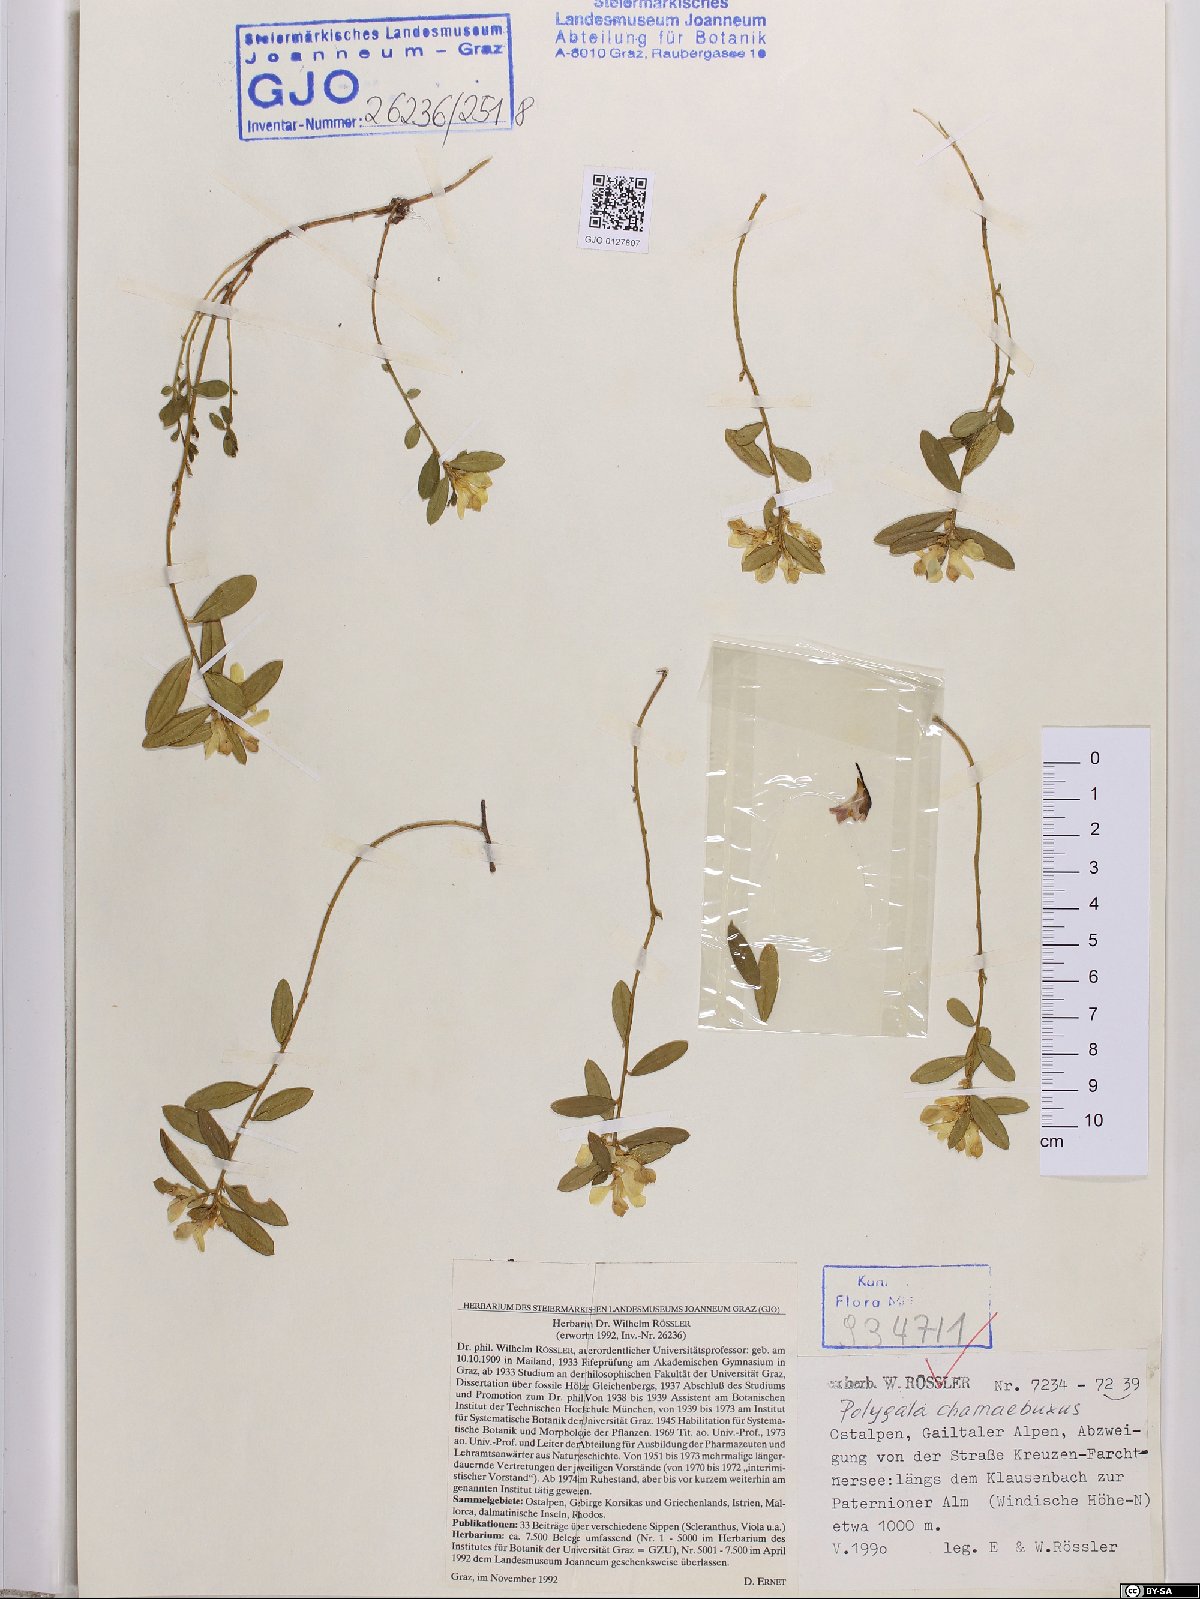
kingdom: Plantae
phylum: Tracheophyta
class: Magnoliopsida
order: Fabales
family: Polygalaceae
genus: Polygaloides
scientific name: Polygaloides chamaebuxus
